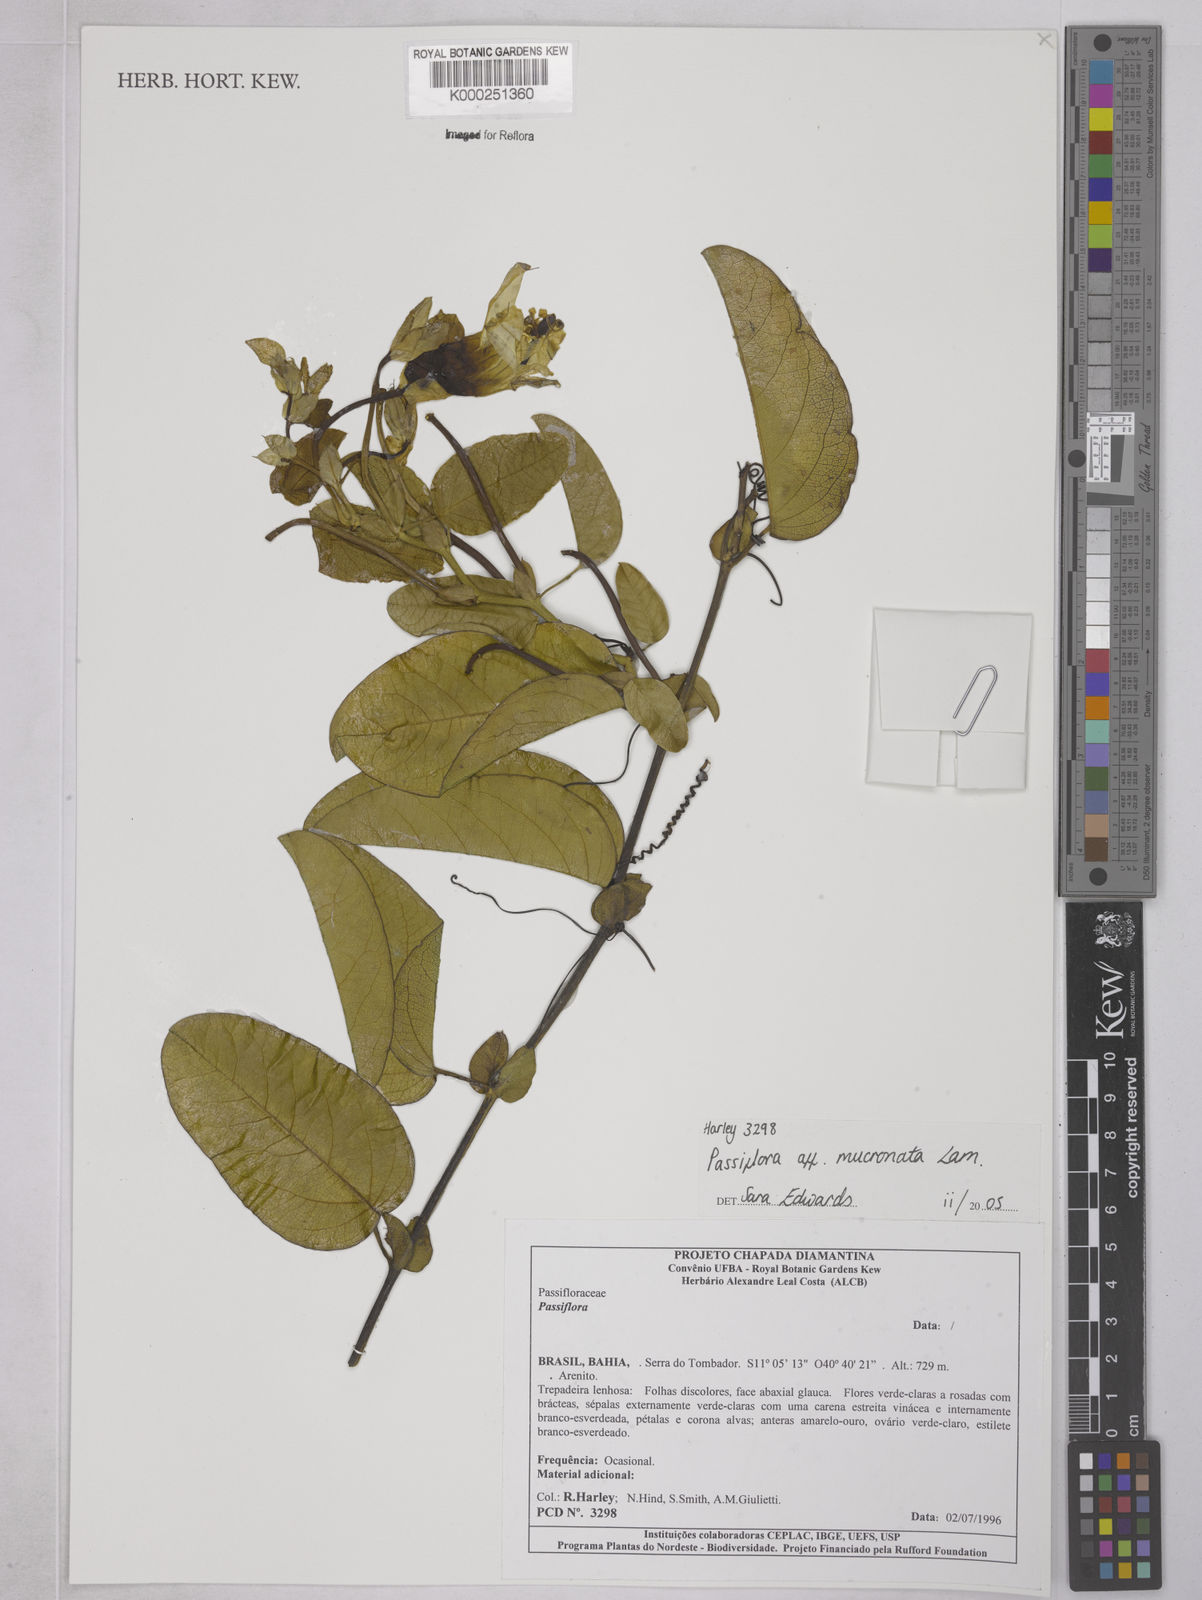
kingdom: Plantae
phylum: Tracheophyta
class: Magnoliopsida
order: Malpighiales
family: Passifloraceae
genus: Passiflora
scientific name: Passiflora mucronata
